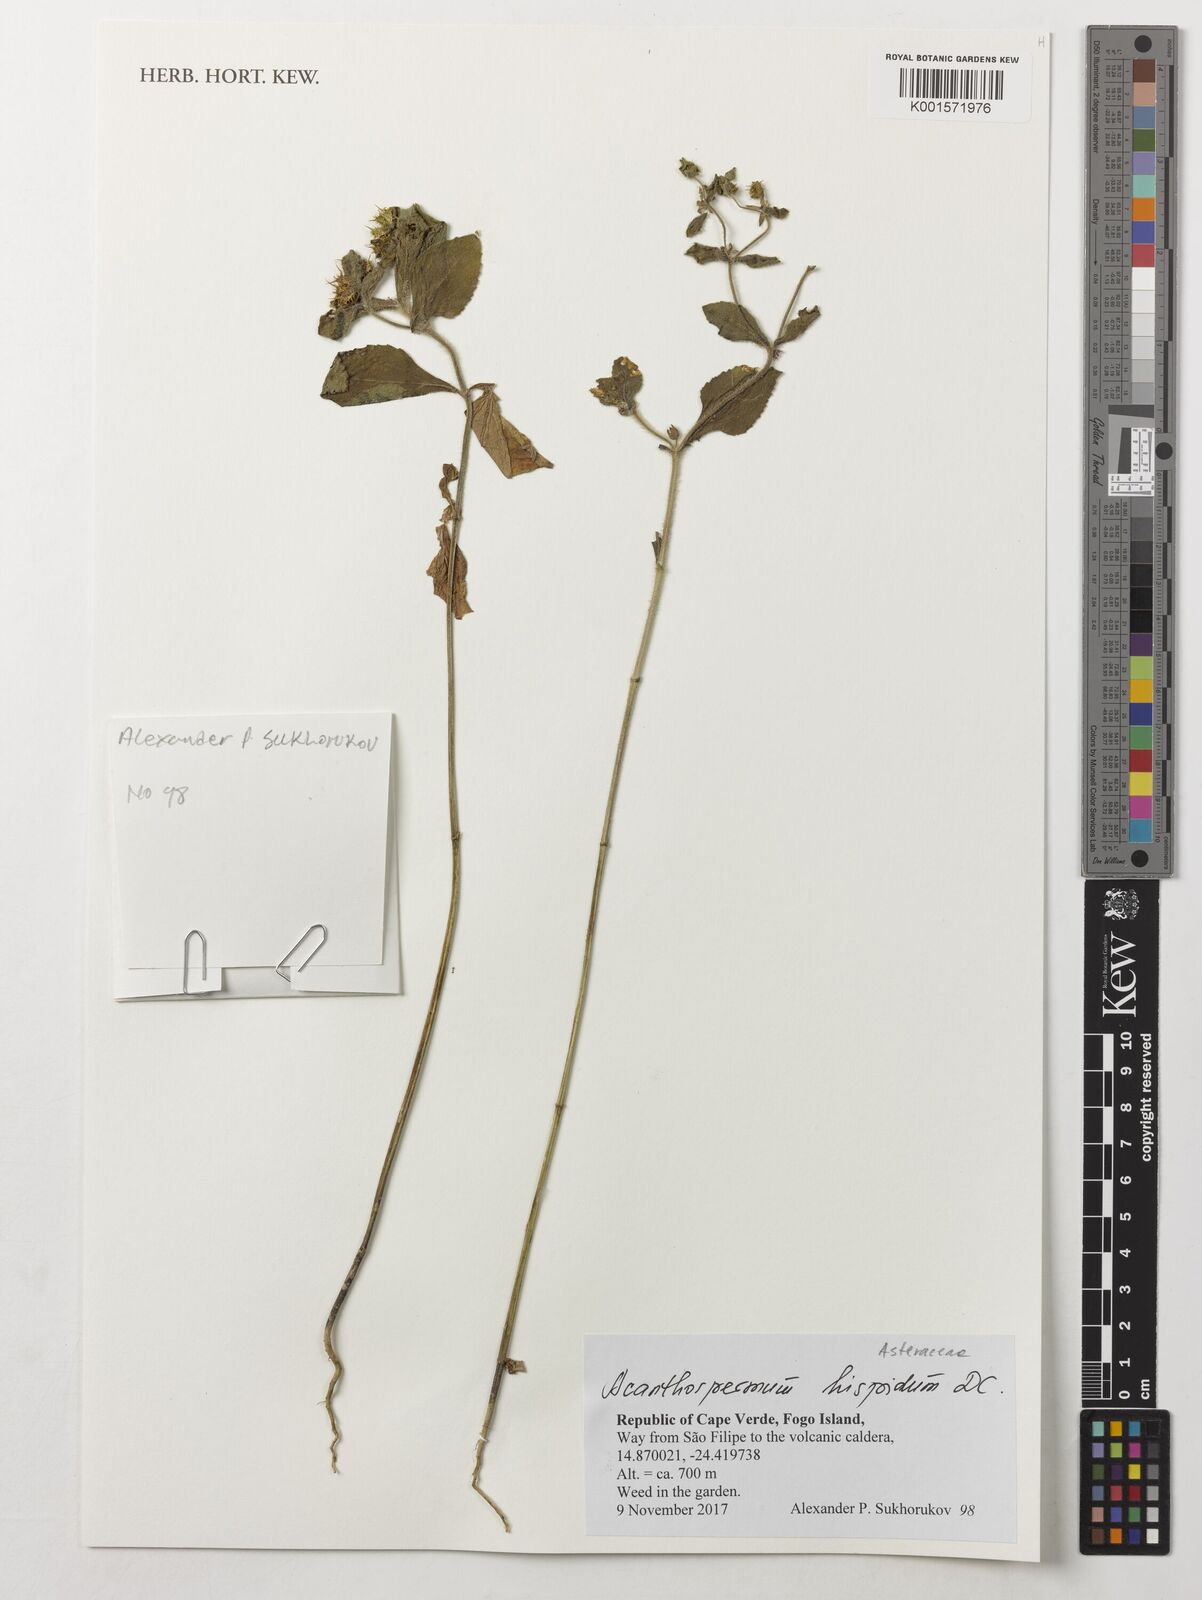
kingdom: Plantae
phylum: Tracheophyta
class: Magnoliopsida
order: Asterales
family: Asteraceae
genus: Acanthospermum
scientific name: Acanthospermum hispidum
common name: Hispid starbur
